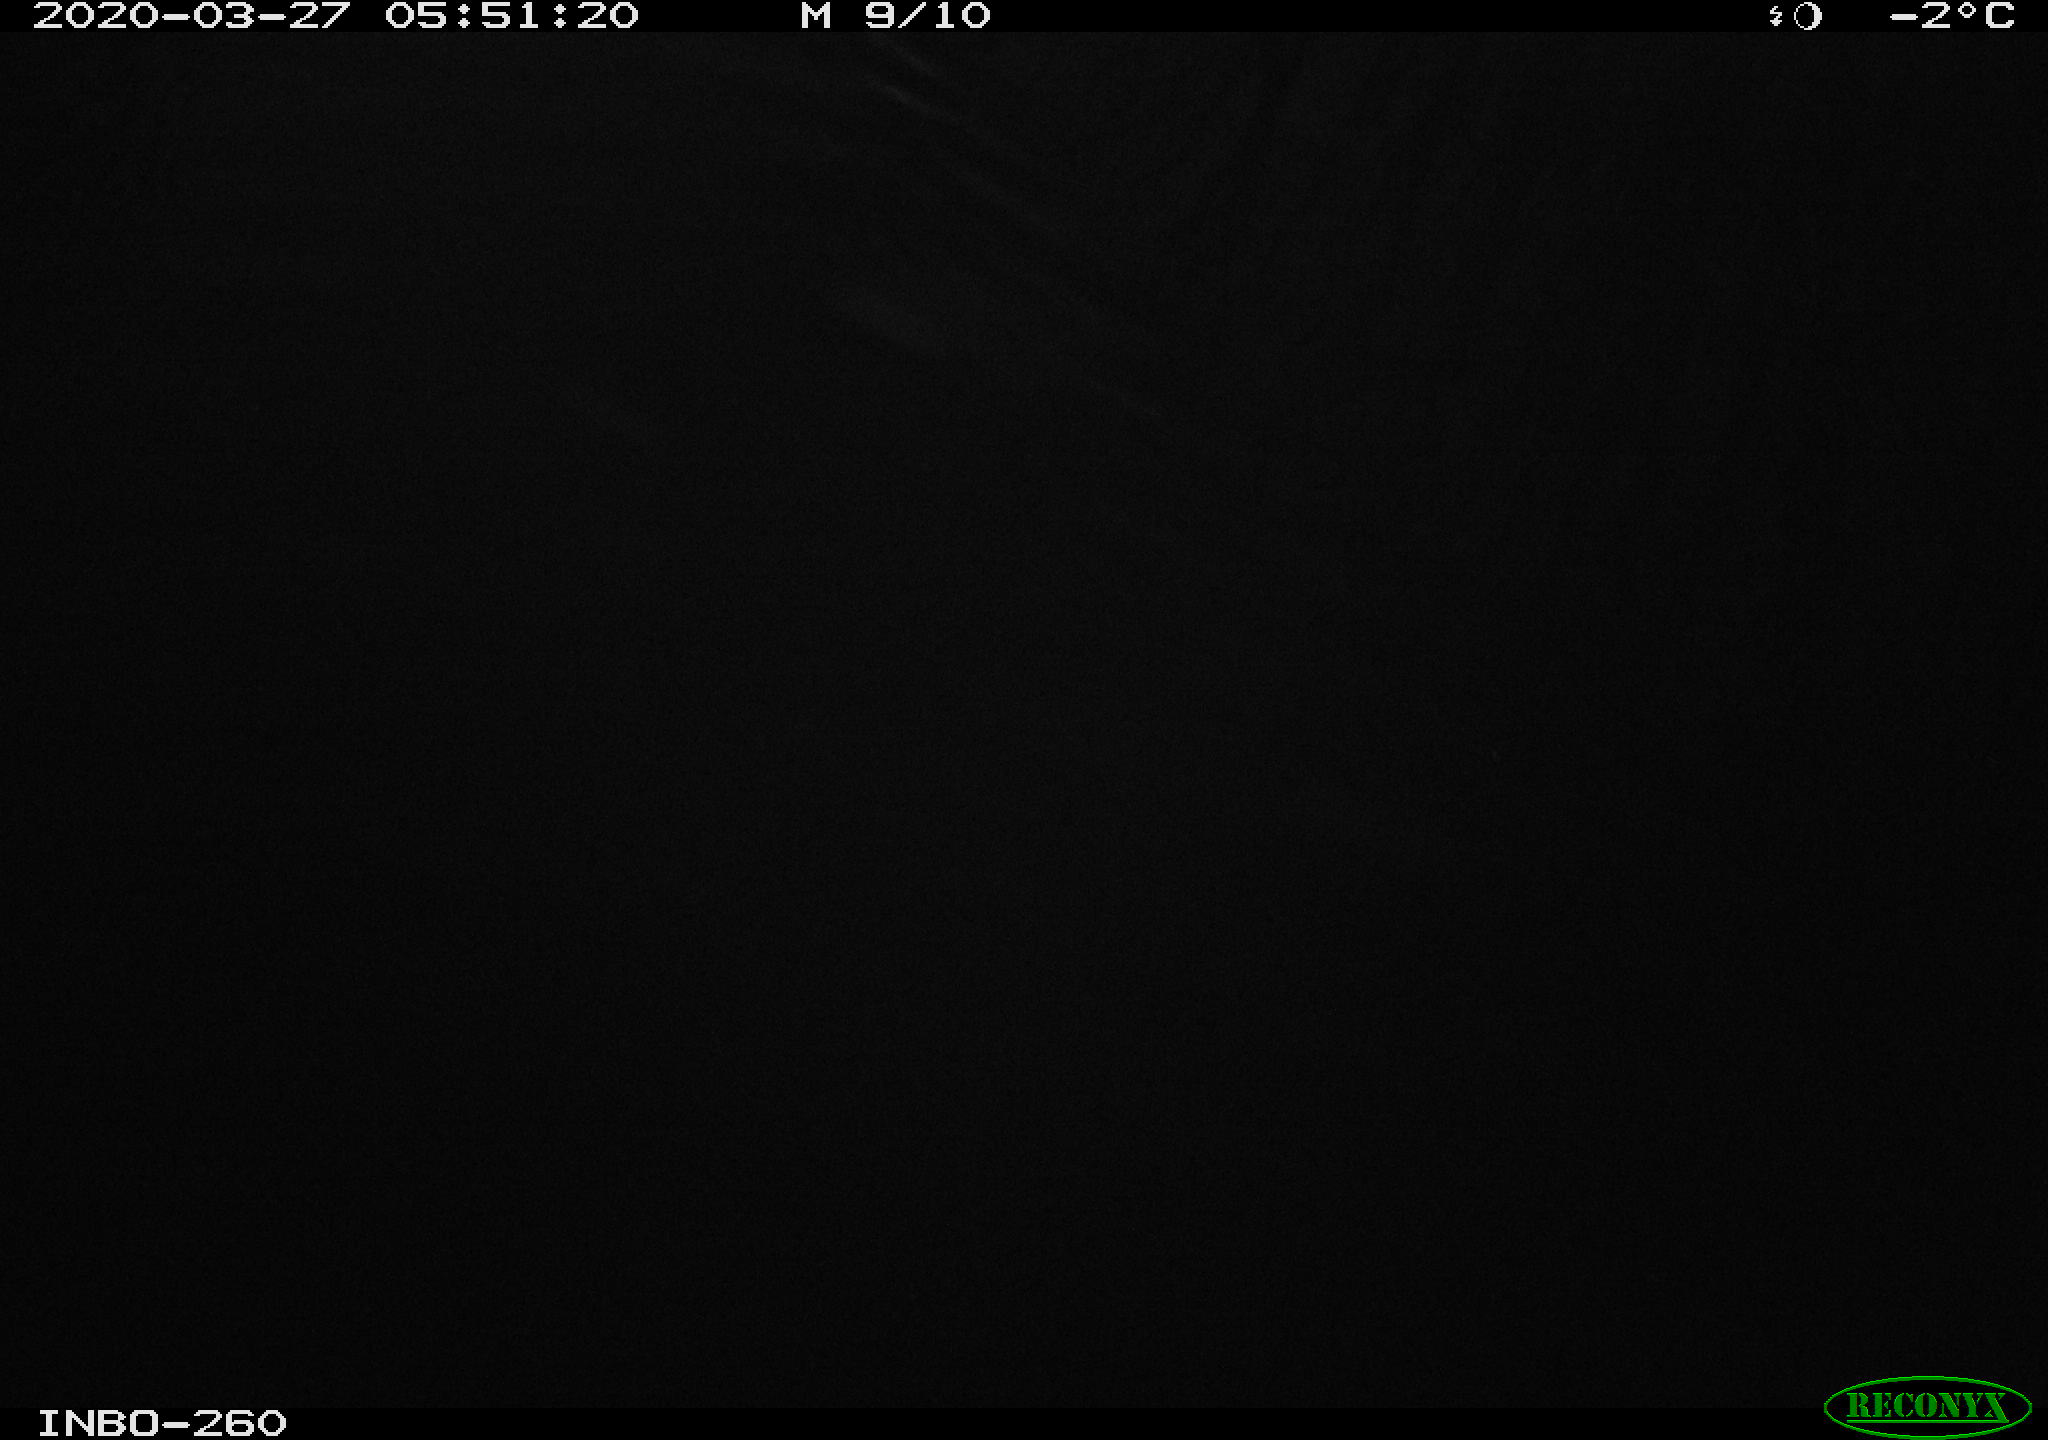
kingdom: Animalia
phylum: Chordata
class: Aves
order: Anseriformes
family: Anatidae
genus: Anas
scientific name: Anas platyrhynchos
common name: Mallard
